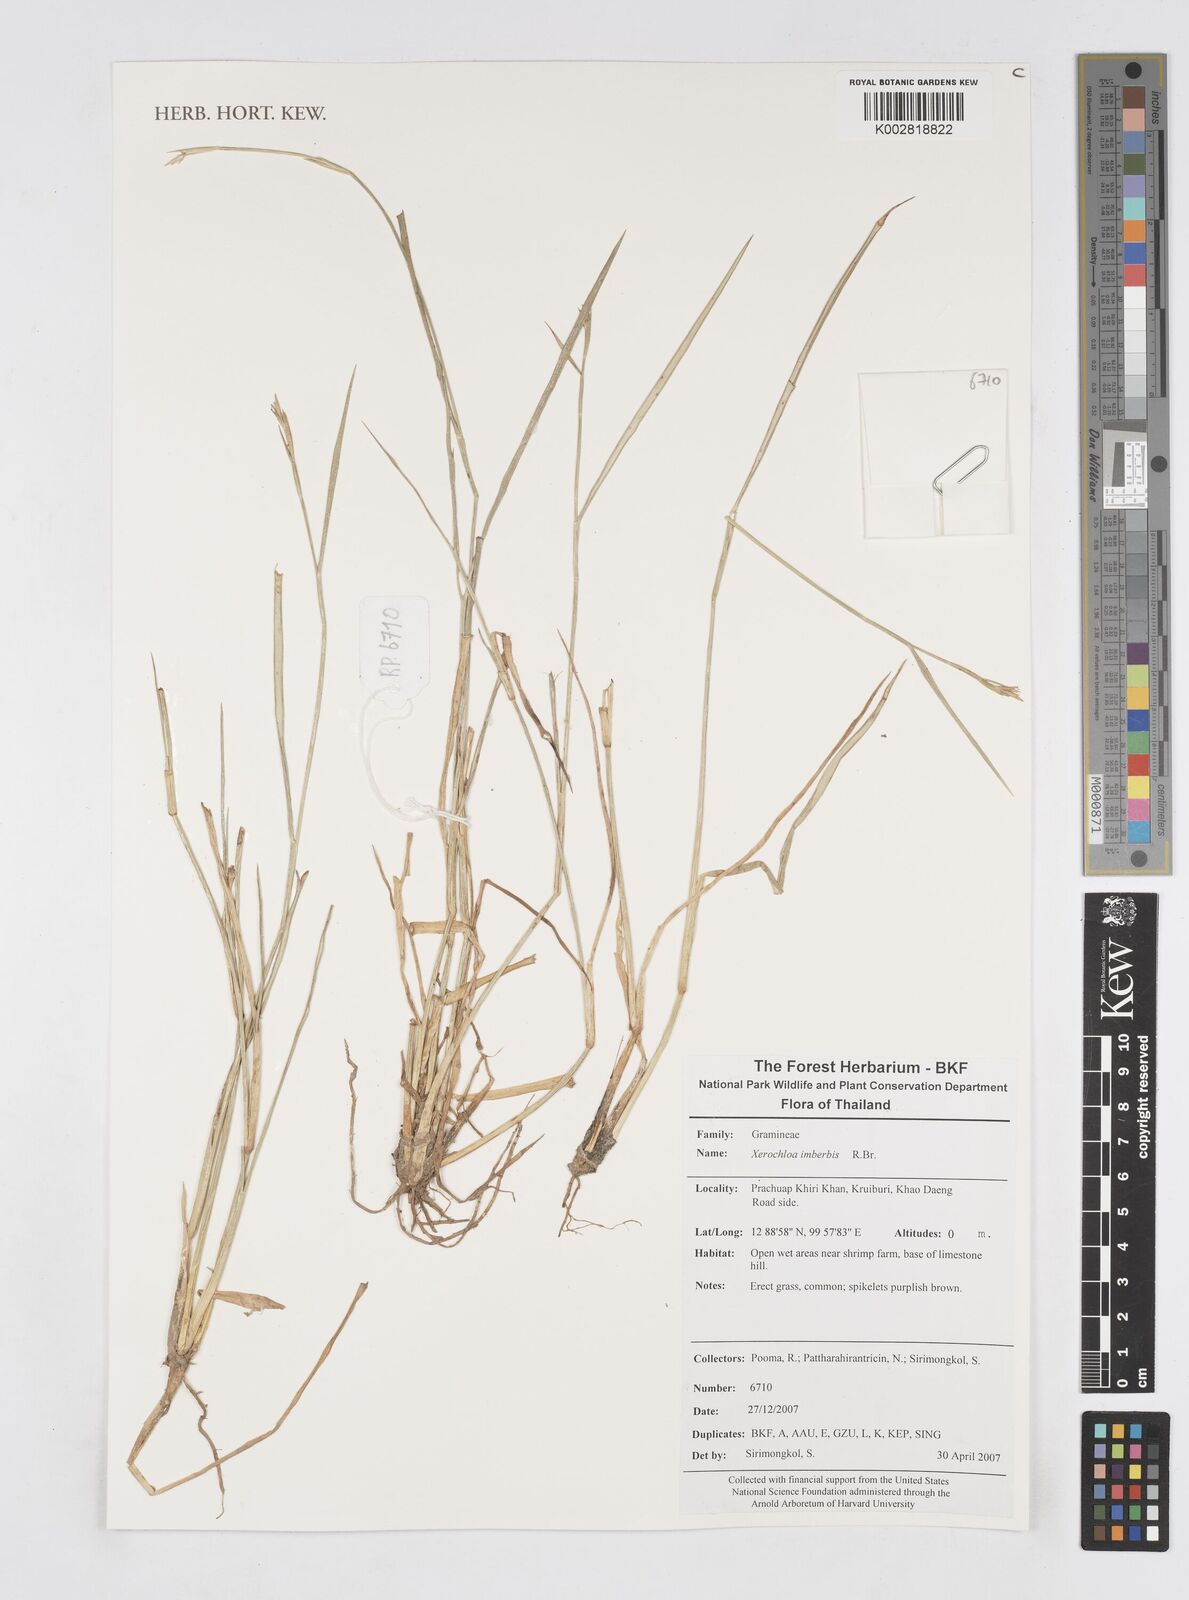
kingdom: Plantae
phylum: Tracheophyta
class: Liliopsida
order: Poales
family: Poaceae
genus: Xerochloa
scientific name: Xerochloa imberbis
